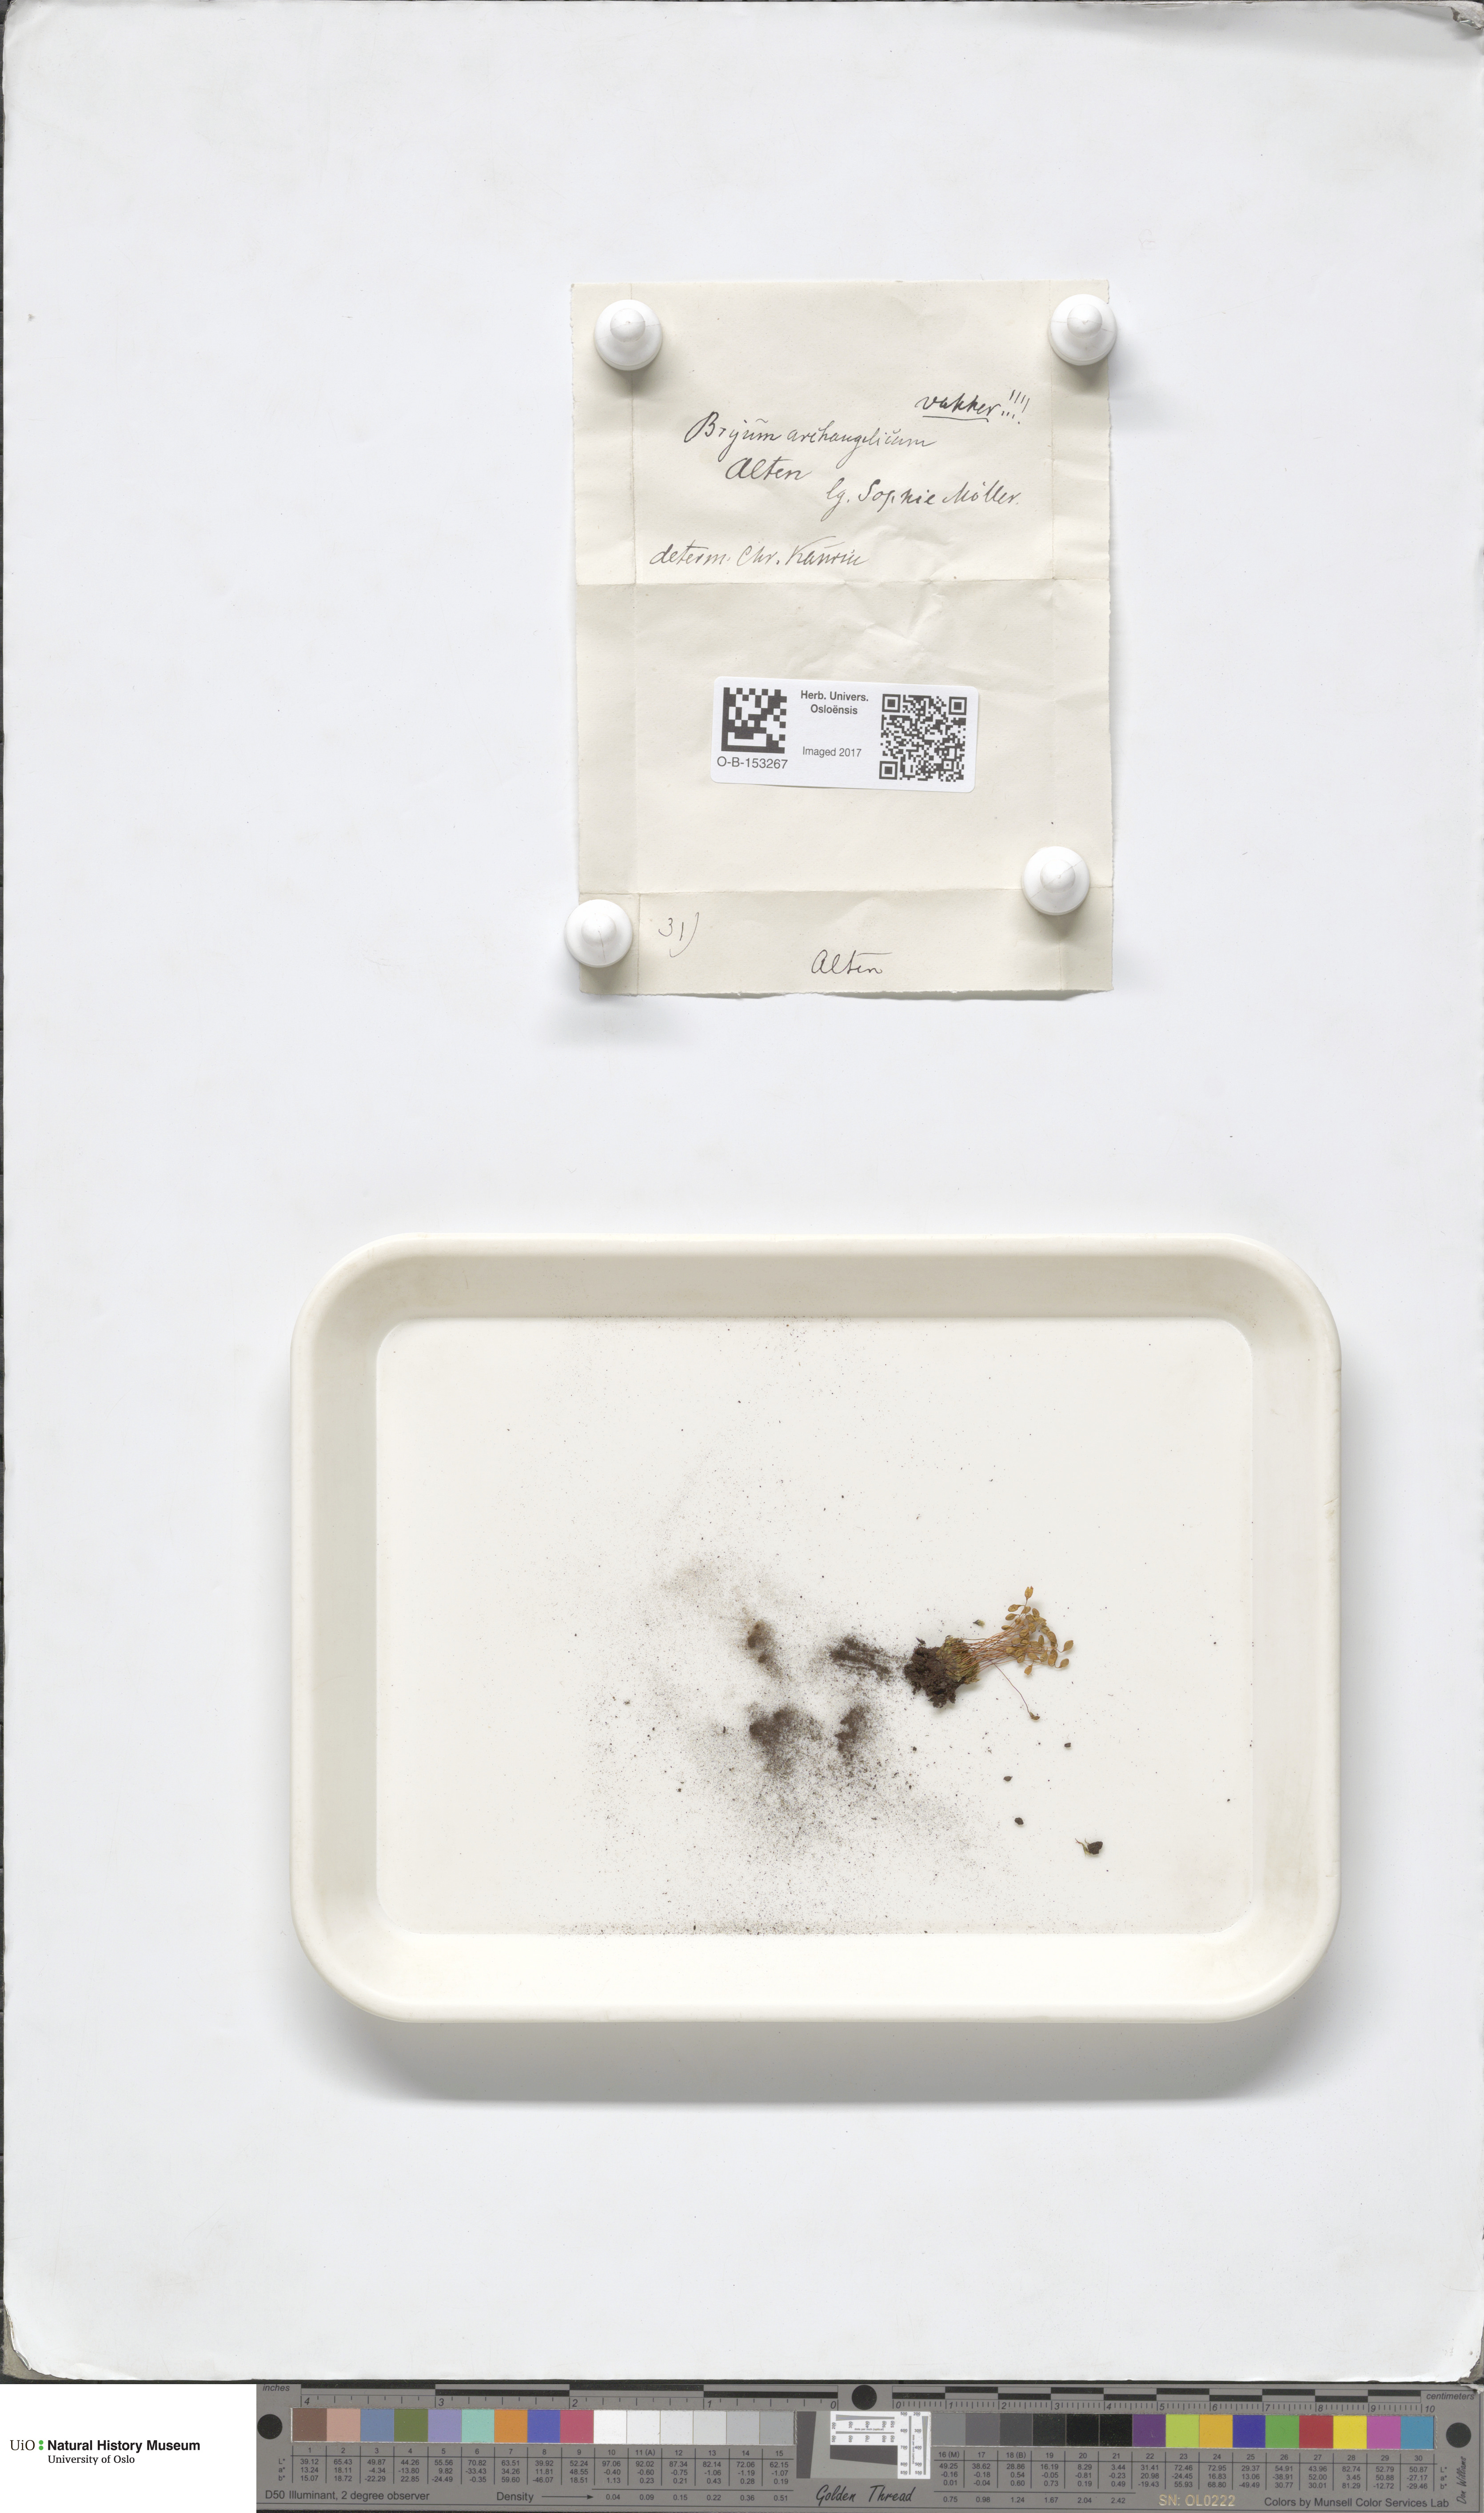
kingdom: Plantae
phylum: Bryophyta
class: Bryopsida
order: Bryales
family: Bryaceae
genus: Ptychostomum
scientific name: Ptychostomum inclinatum
